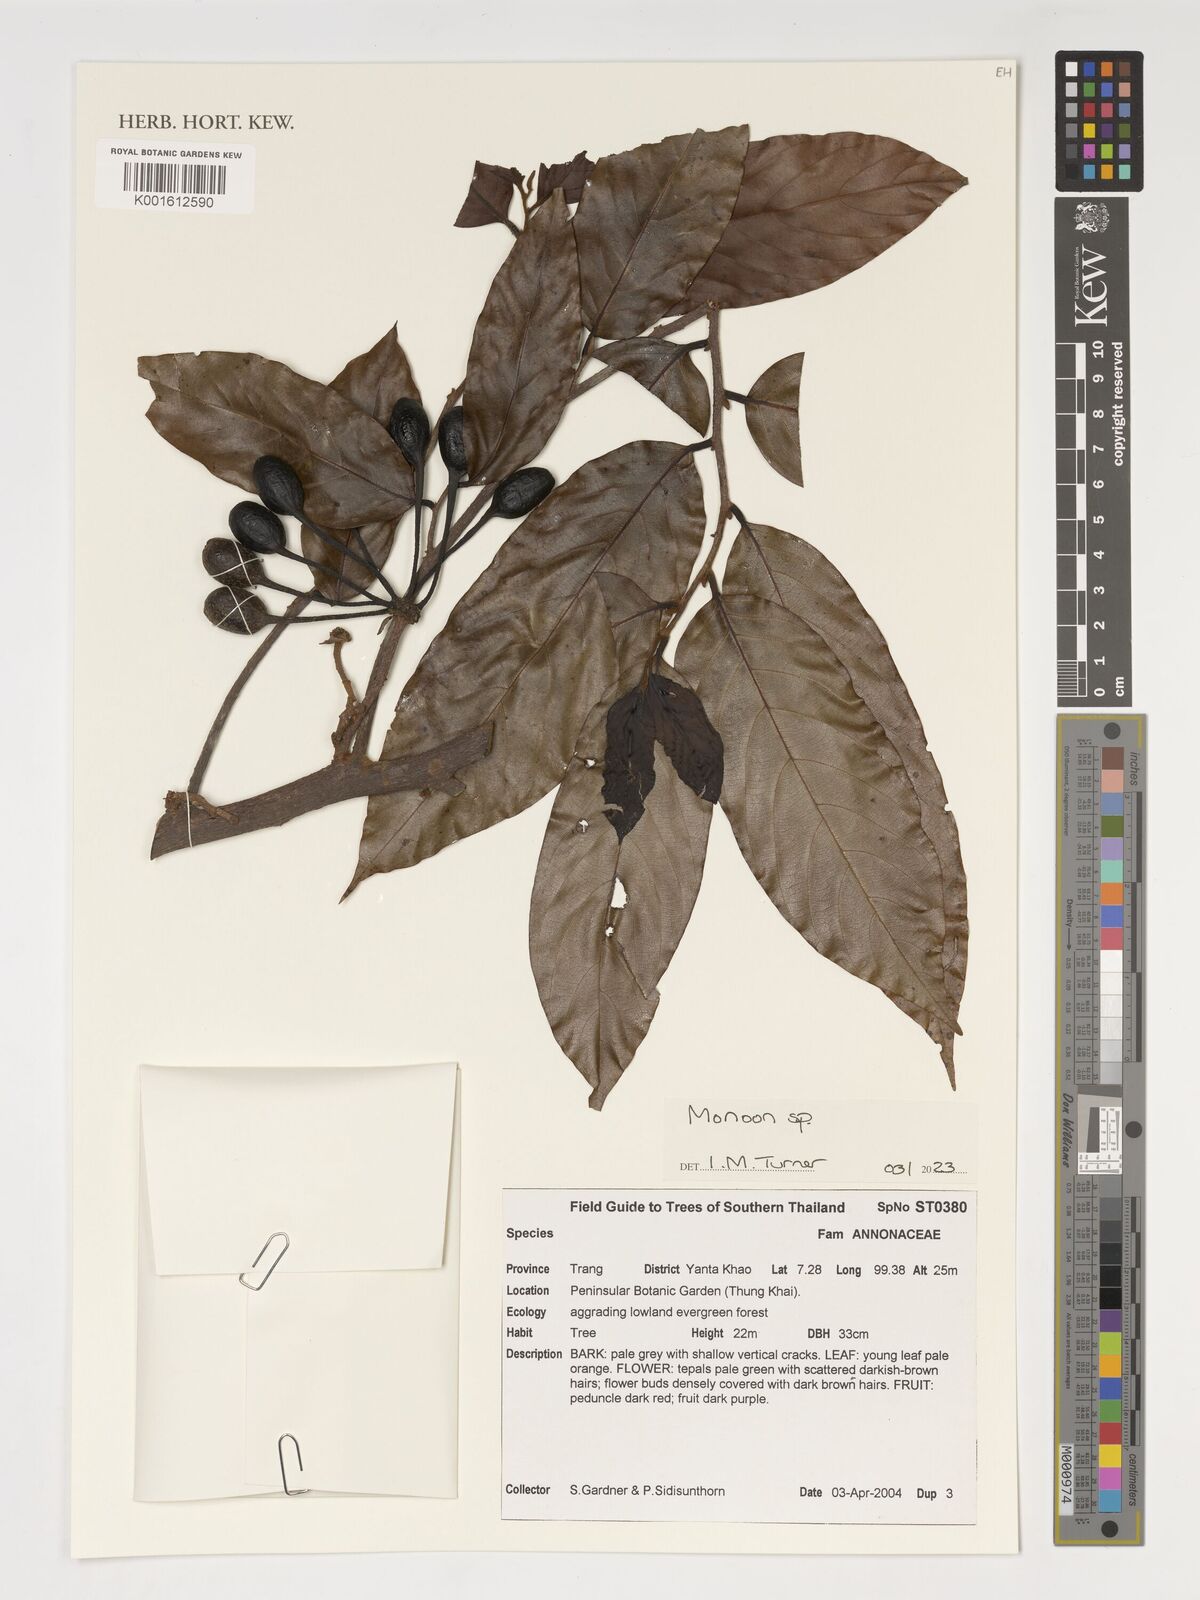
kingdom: Plantae
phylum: Tracheophyta
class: Magnoliopsida
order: Magnoliales
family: Annonaceae
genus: Monoon
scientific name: Monoon
